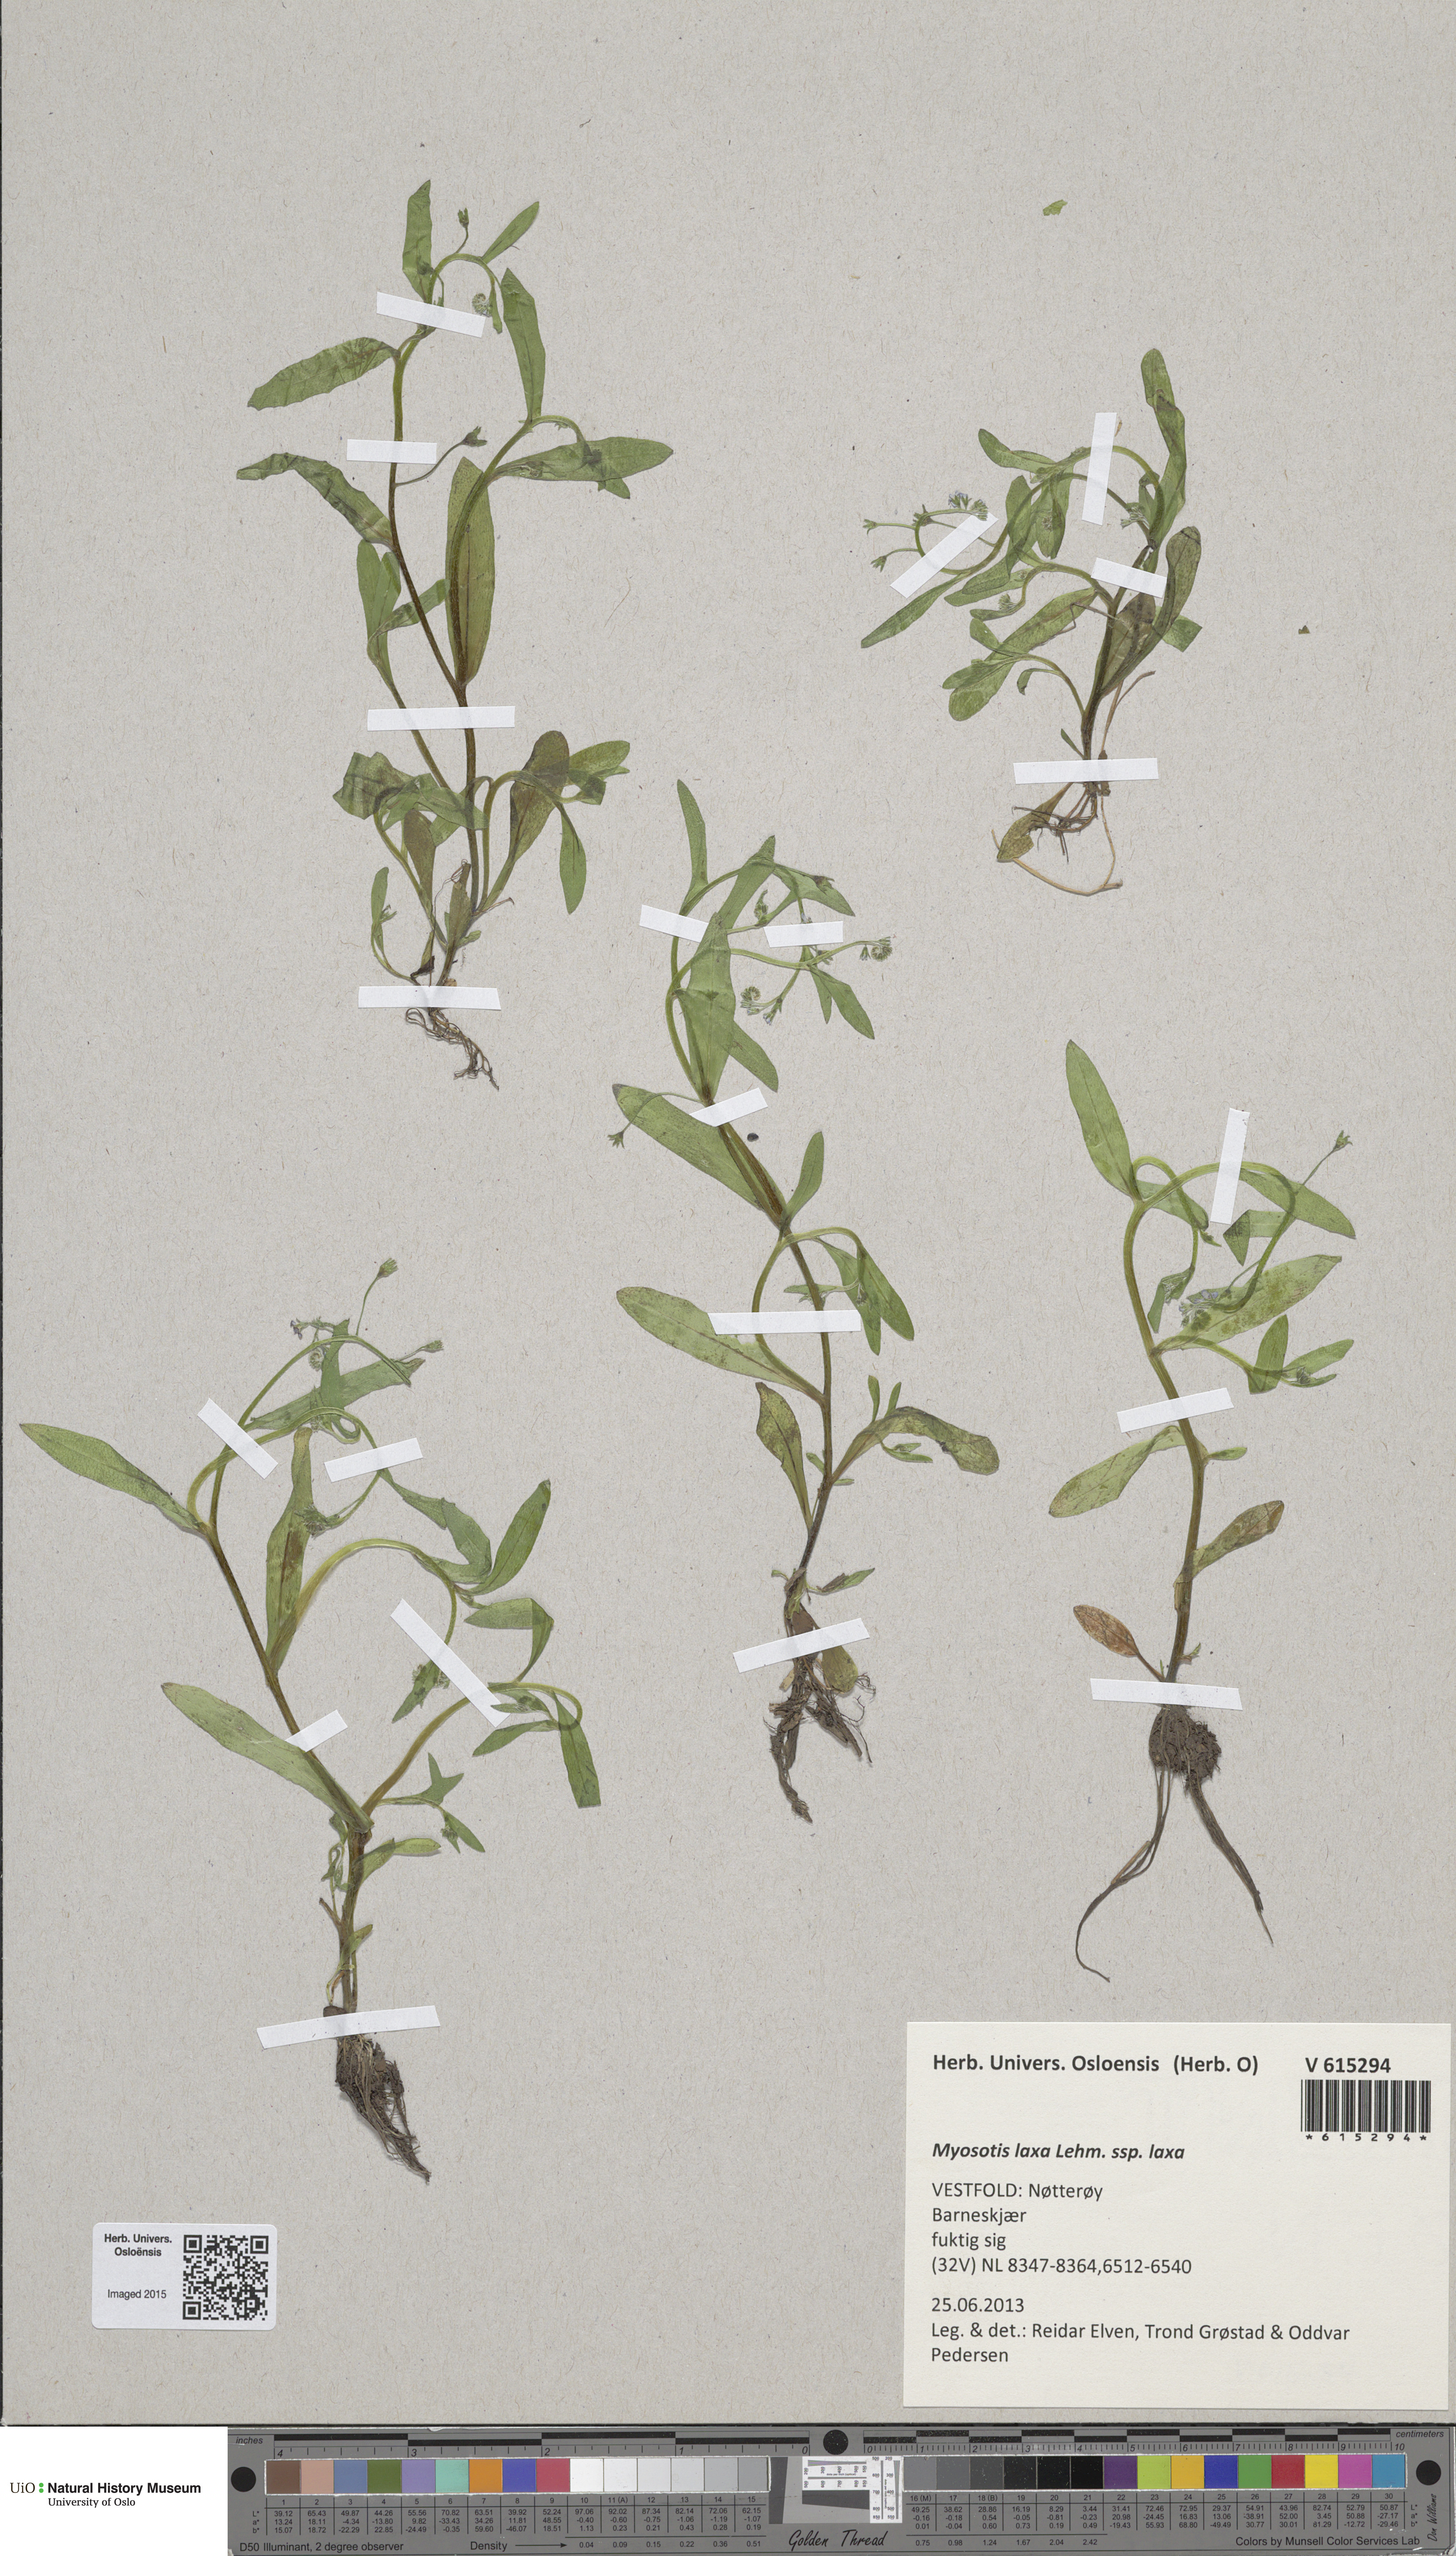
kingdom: Plantae
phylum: Tracheophyta
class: Magnoliopsida
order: Boraginales
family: Boraginaceae
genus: Myosotis
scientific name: Myosotis laxa
